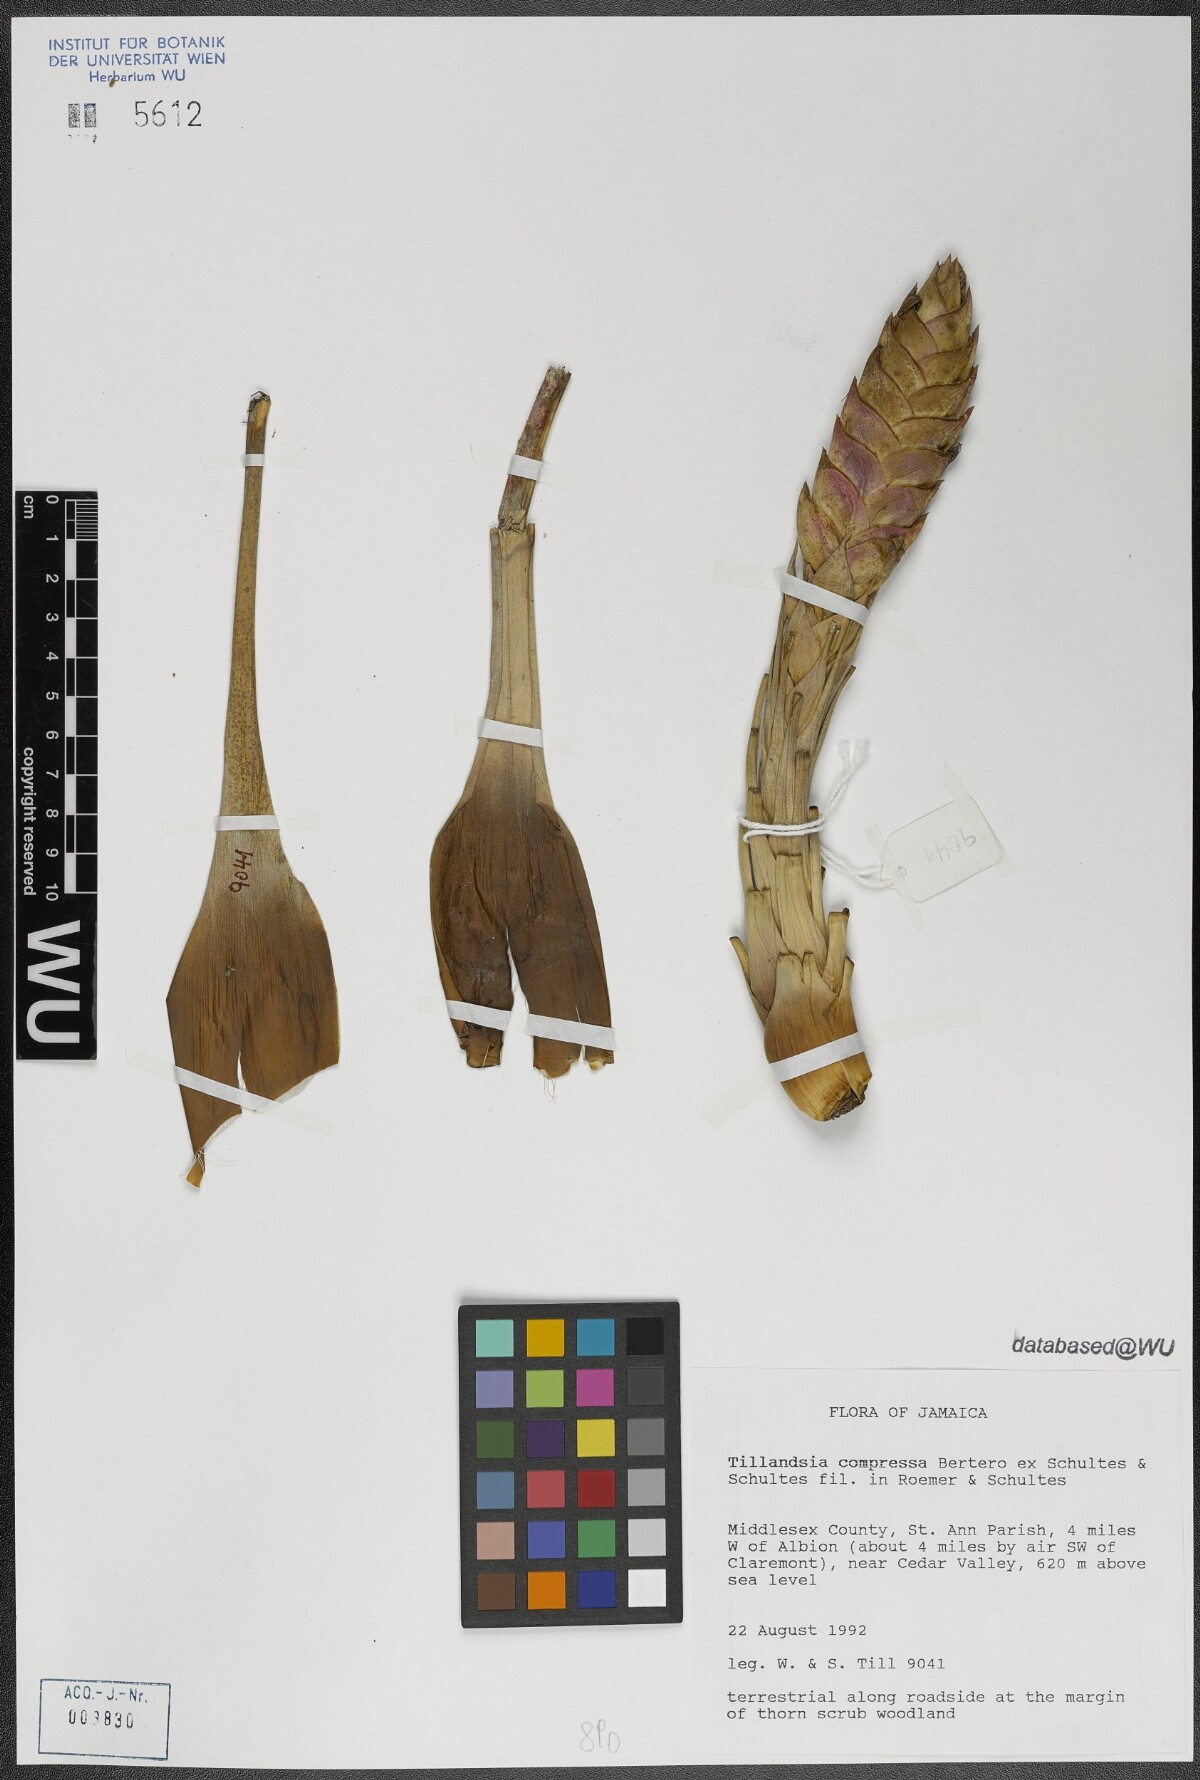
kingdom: Plantae
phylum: Tracheophyta
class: Liliopsida
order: Poales
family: Bromeliaceae
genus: Tillandsia
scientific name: Tillandsia compressa
